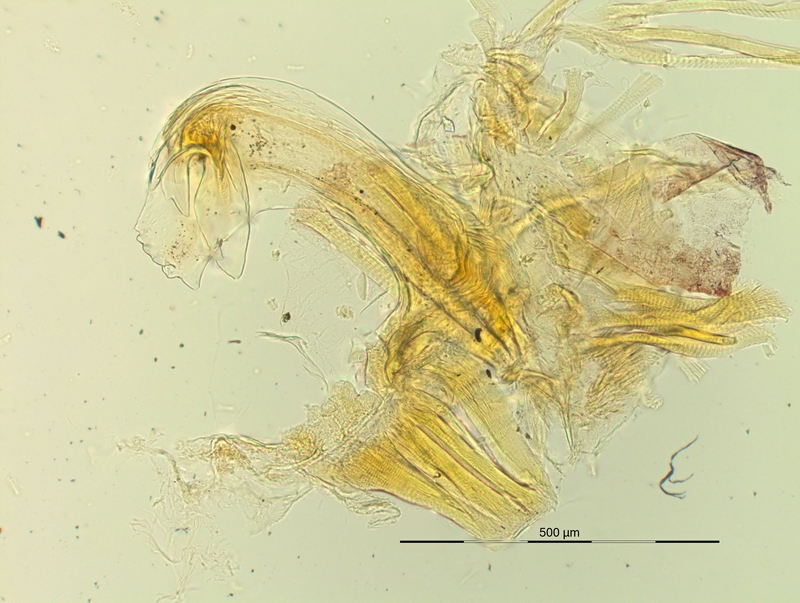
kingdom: Animalia
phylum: Arthropoda
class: Diplopoda
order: Chordeumatida
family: Craspedosomatidae
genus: Pyrgocyphosoma
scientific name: Pyrgocyphosoma brembanum
